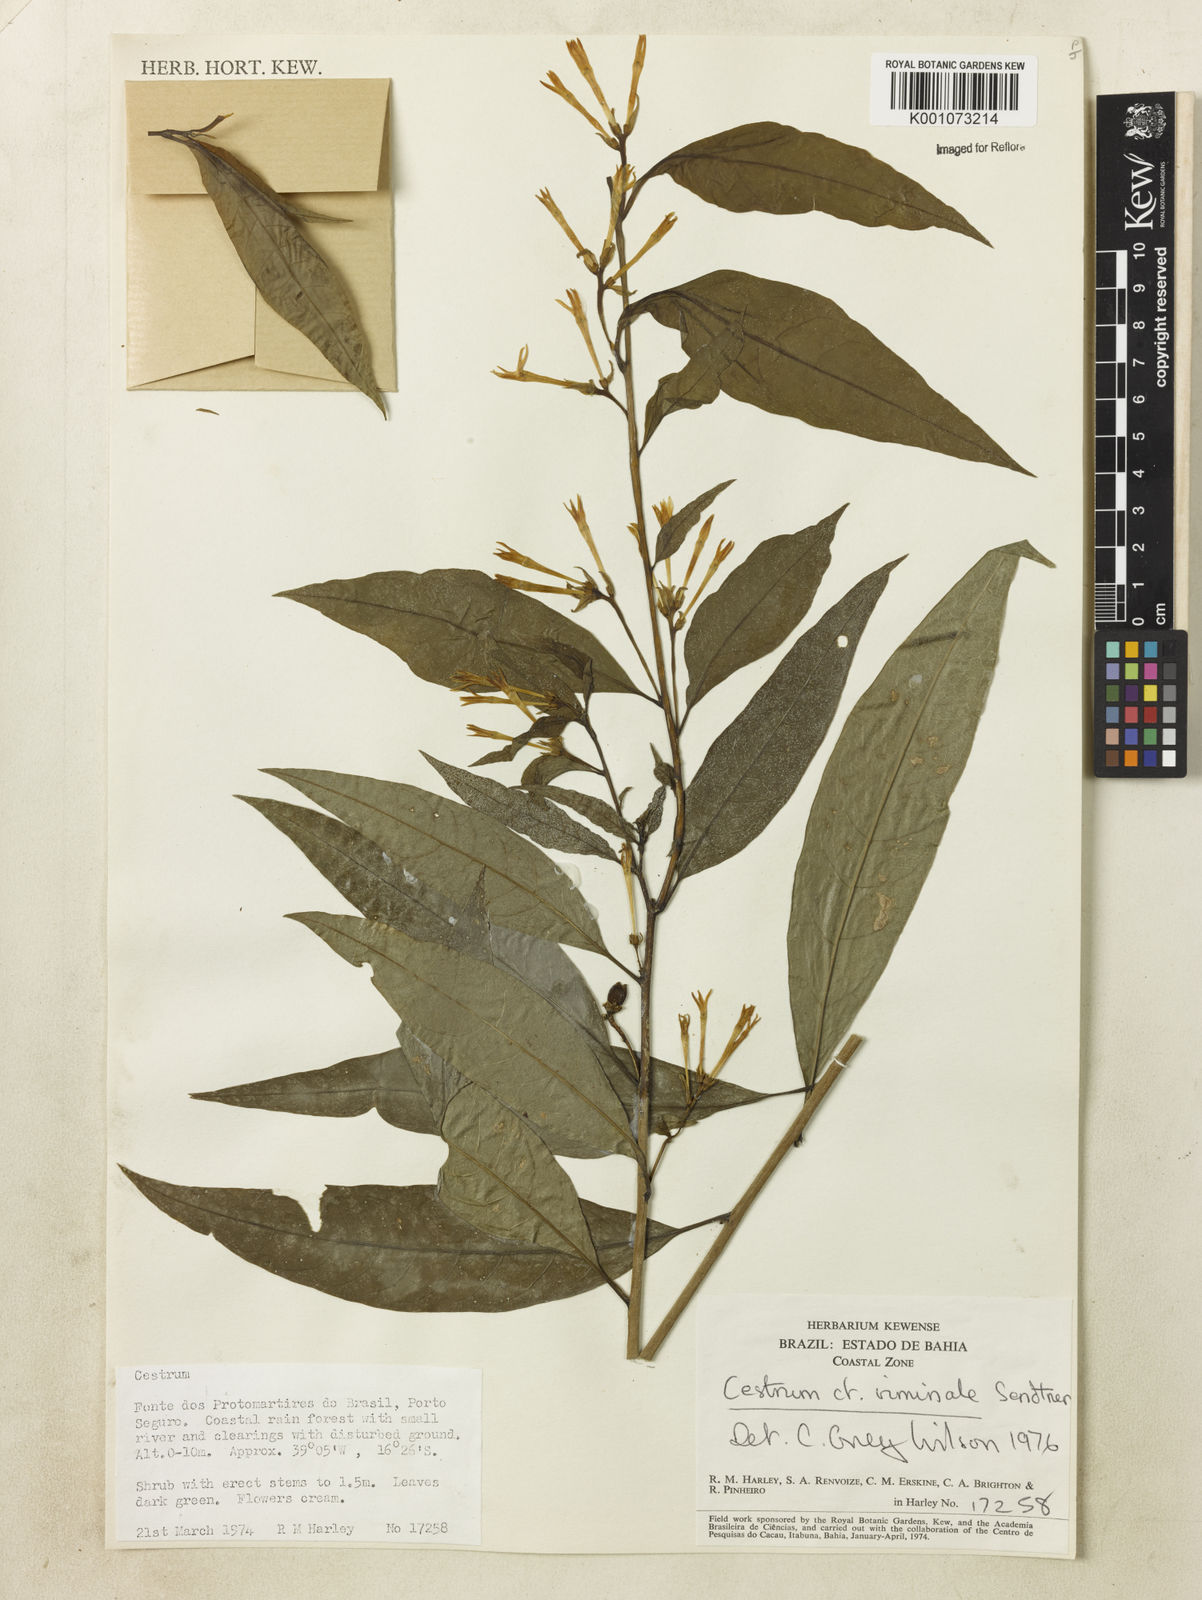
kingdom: Plantae
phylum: Tracheophyta
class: Magnoliopsida
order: Solanales
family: Solanaceae
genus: Cestrum
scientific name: Cestrum montanum
